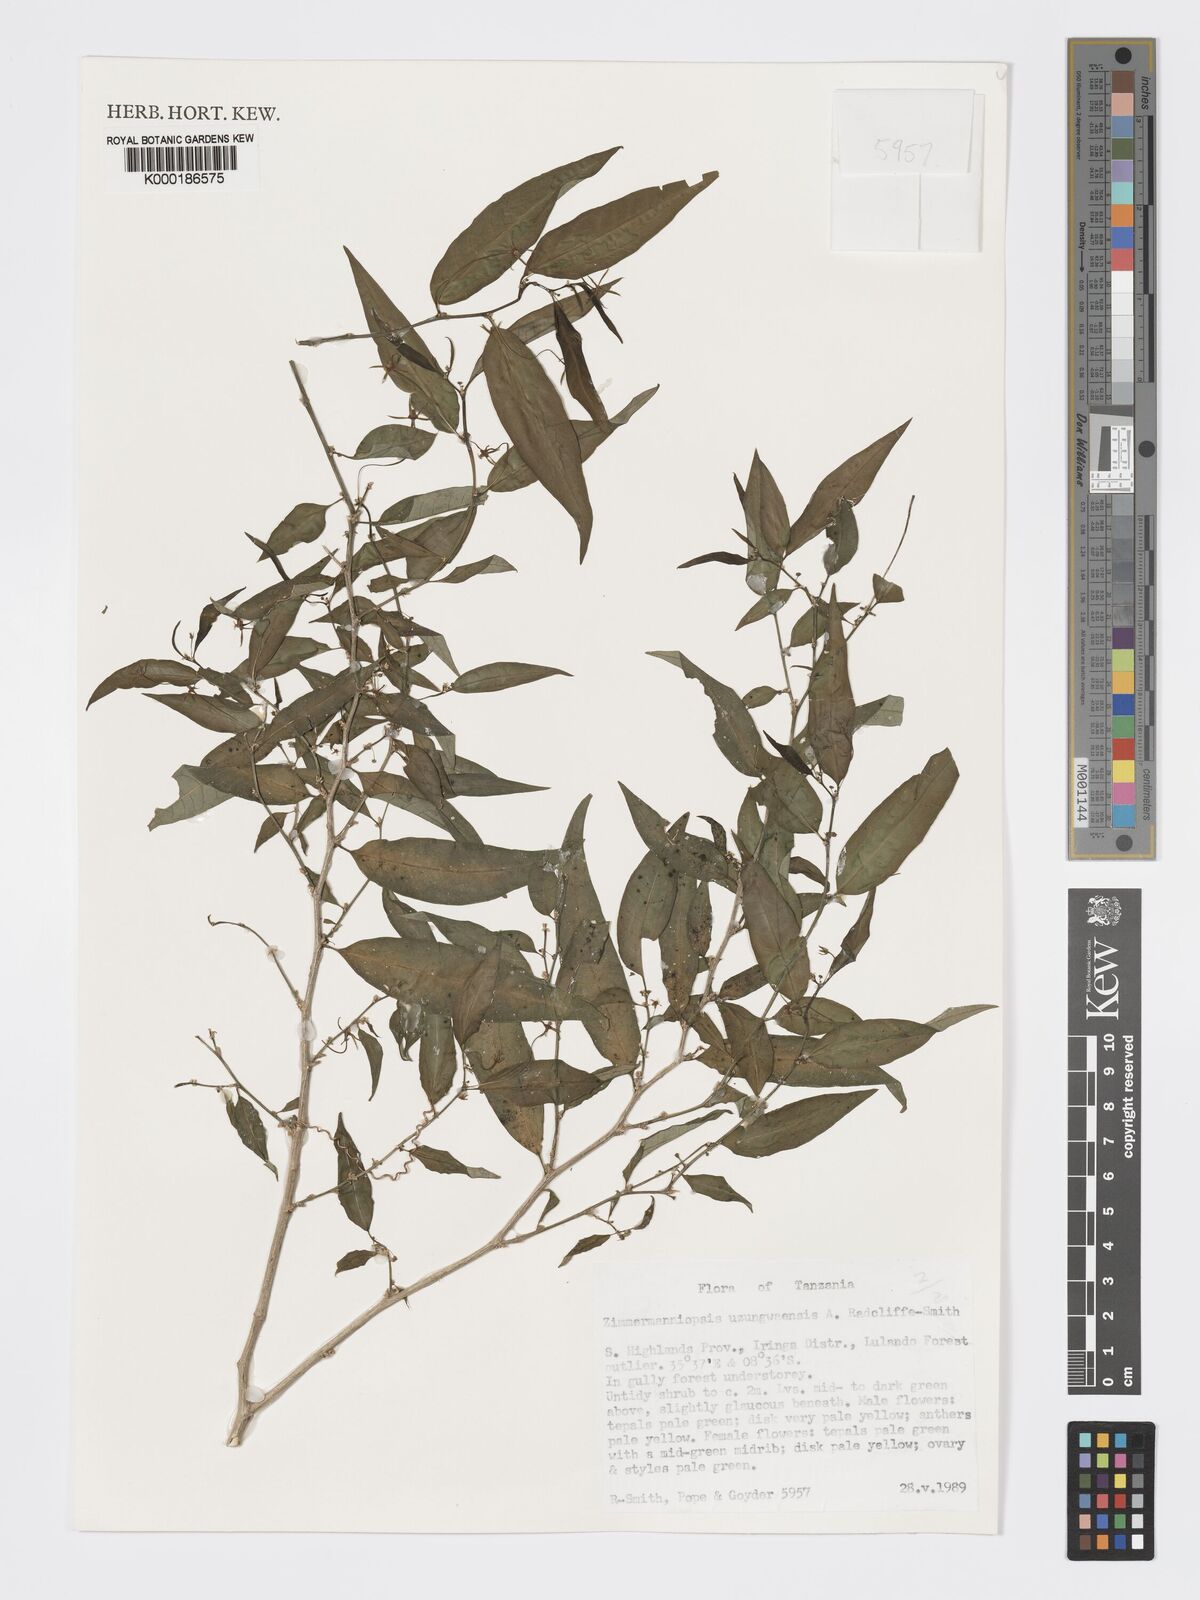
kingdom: Plantae
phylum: Tracheophyta
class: Magnoliopsida
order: Malpighiales
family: Phyllanthaceae
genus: Meineckia
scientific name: Meineckia uzungwaensis
